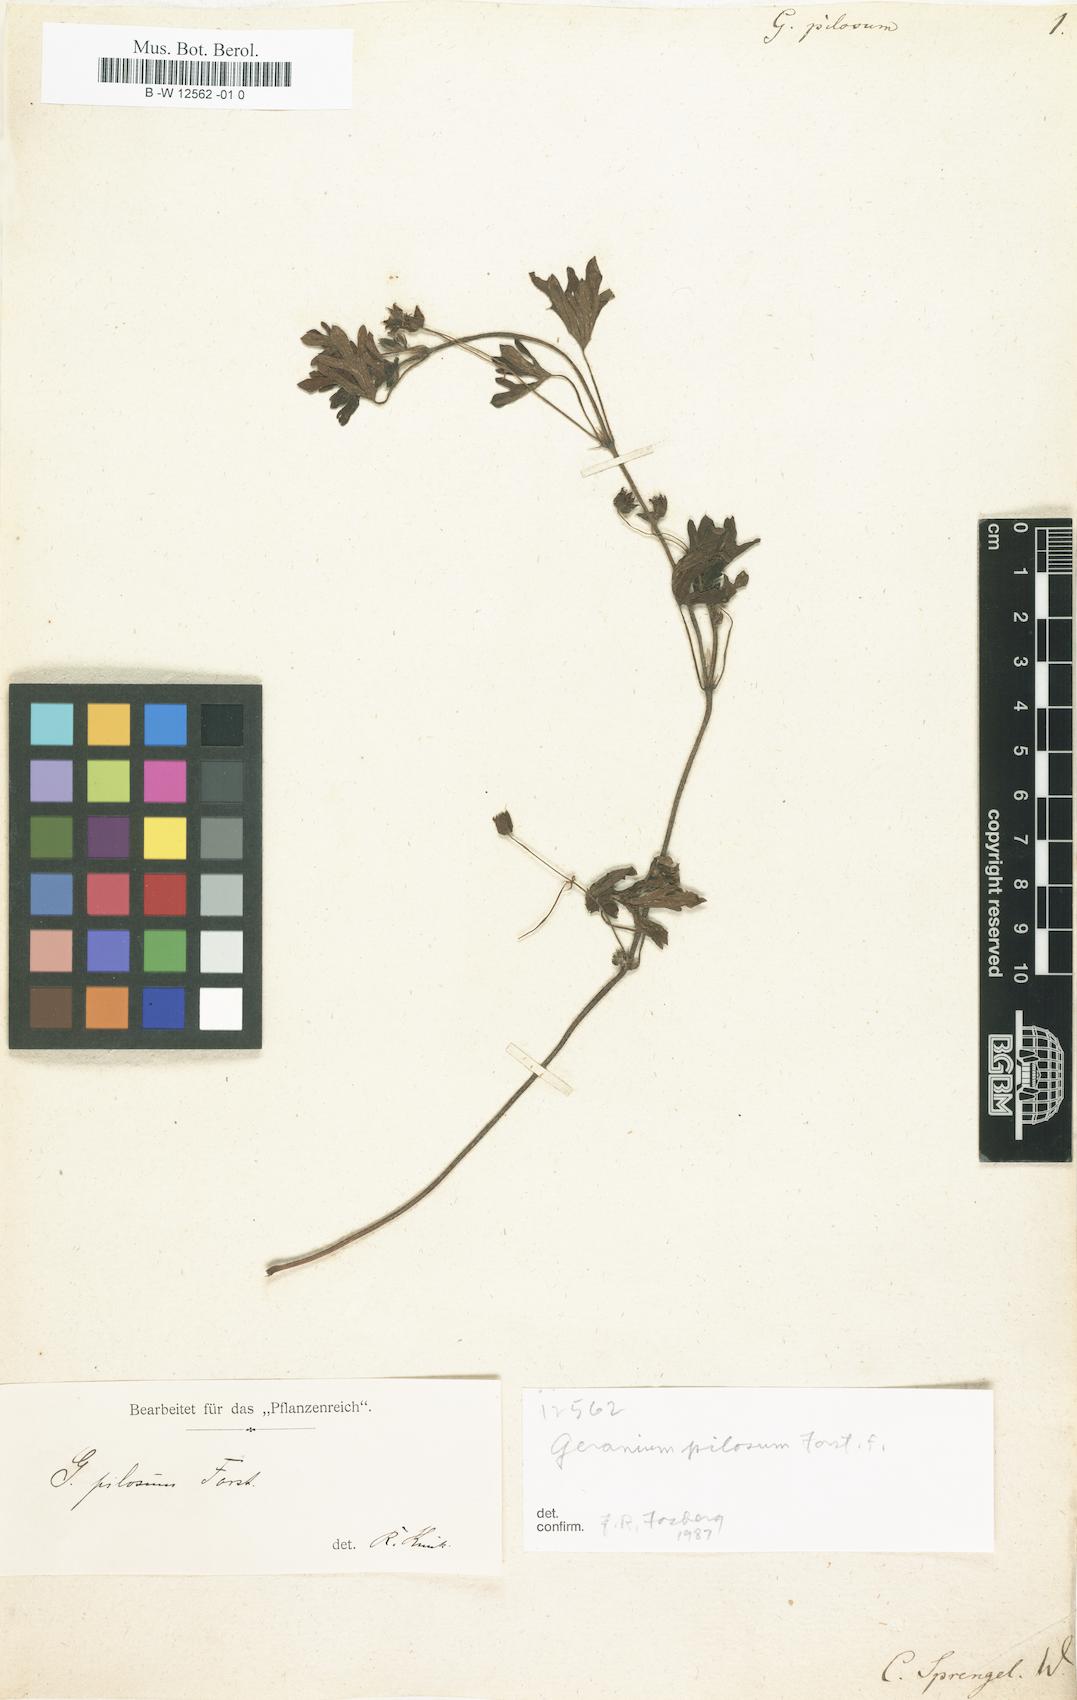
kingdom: Plantae
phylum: Tracheophyta
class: Magnoliopsida
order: Geraniales
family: Geraniaceae
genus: Geranium
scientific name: Geranium solanderi
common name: Solander's geranium
